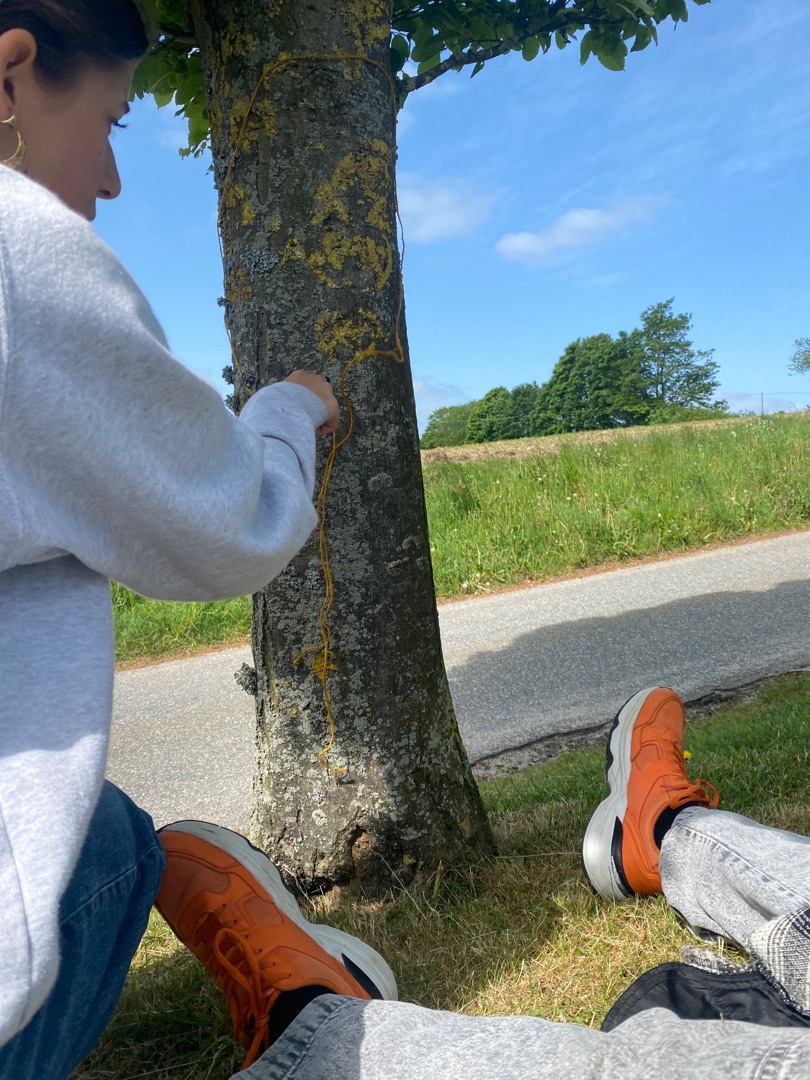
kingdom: Fungi
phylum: Ascomycota
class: Lecanoromycetes
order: Teloschistales
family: Teloschistaceae
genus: Xanthoria
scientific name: Xanthoria parietina
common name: Almindelig væggelav
